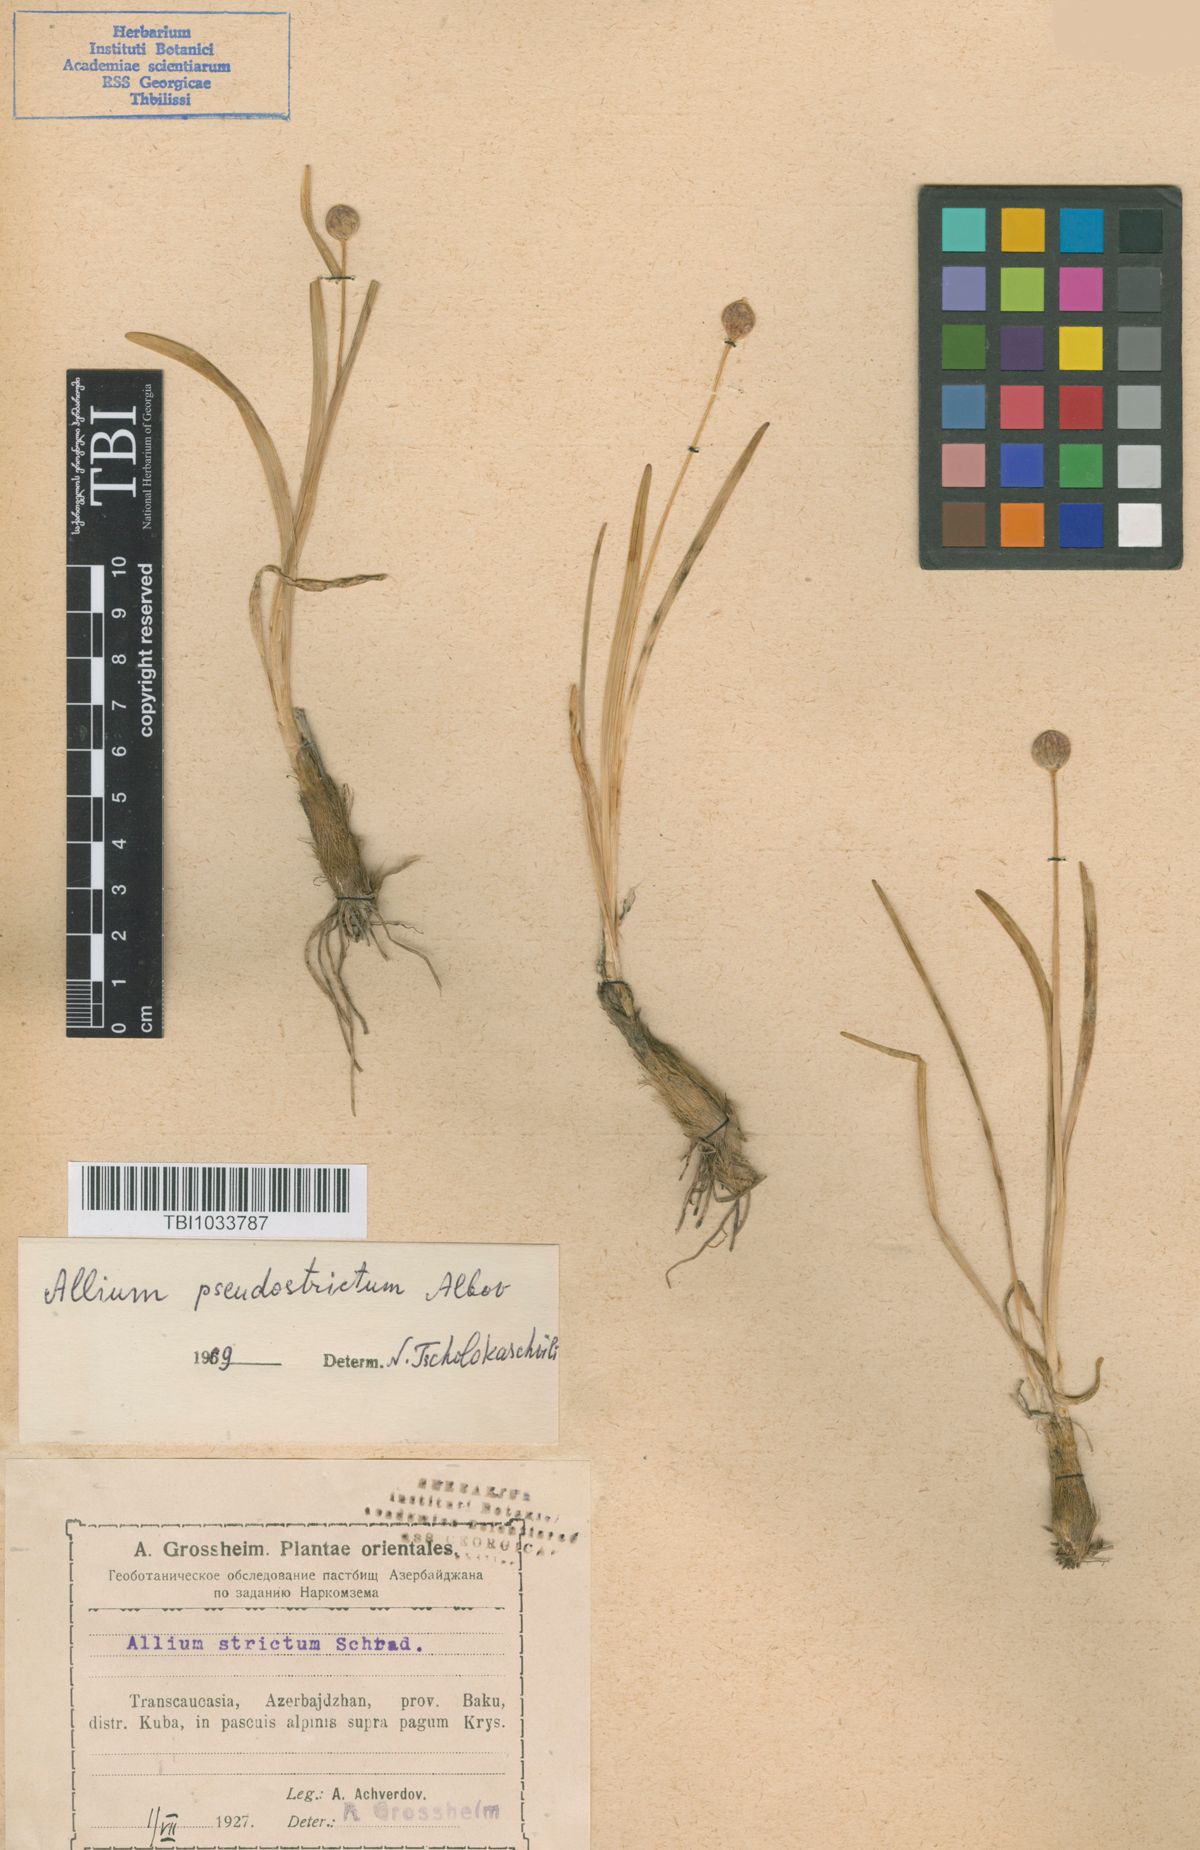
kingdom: Plantae
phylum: Tracheophyta
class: Liliopsida
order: Asparagales
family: Amaryllidaceae
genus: Allium
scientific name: Allium pseudostrictum
